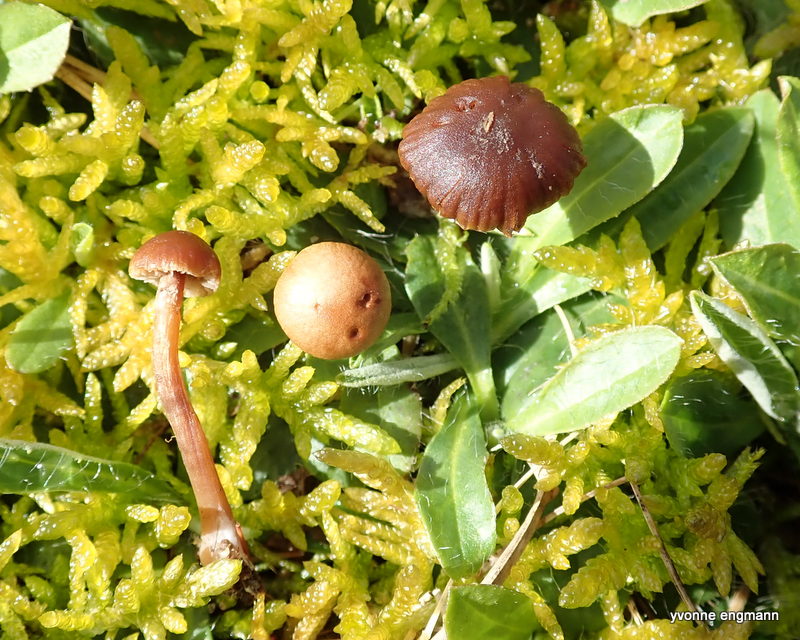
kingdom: Fungi
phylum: Basidiomycota
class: Agaricomycetes
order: Agaricales
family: Strophariaceae
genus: Deconica
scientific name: Deconica
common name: stråhat
